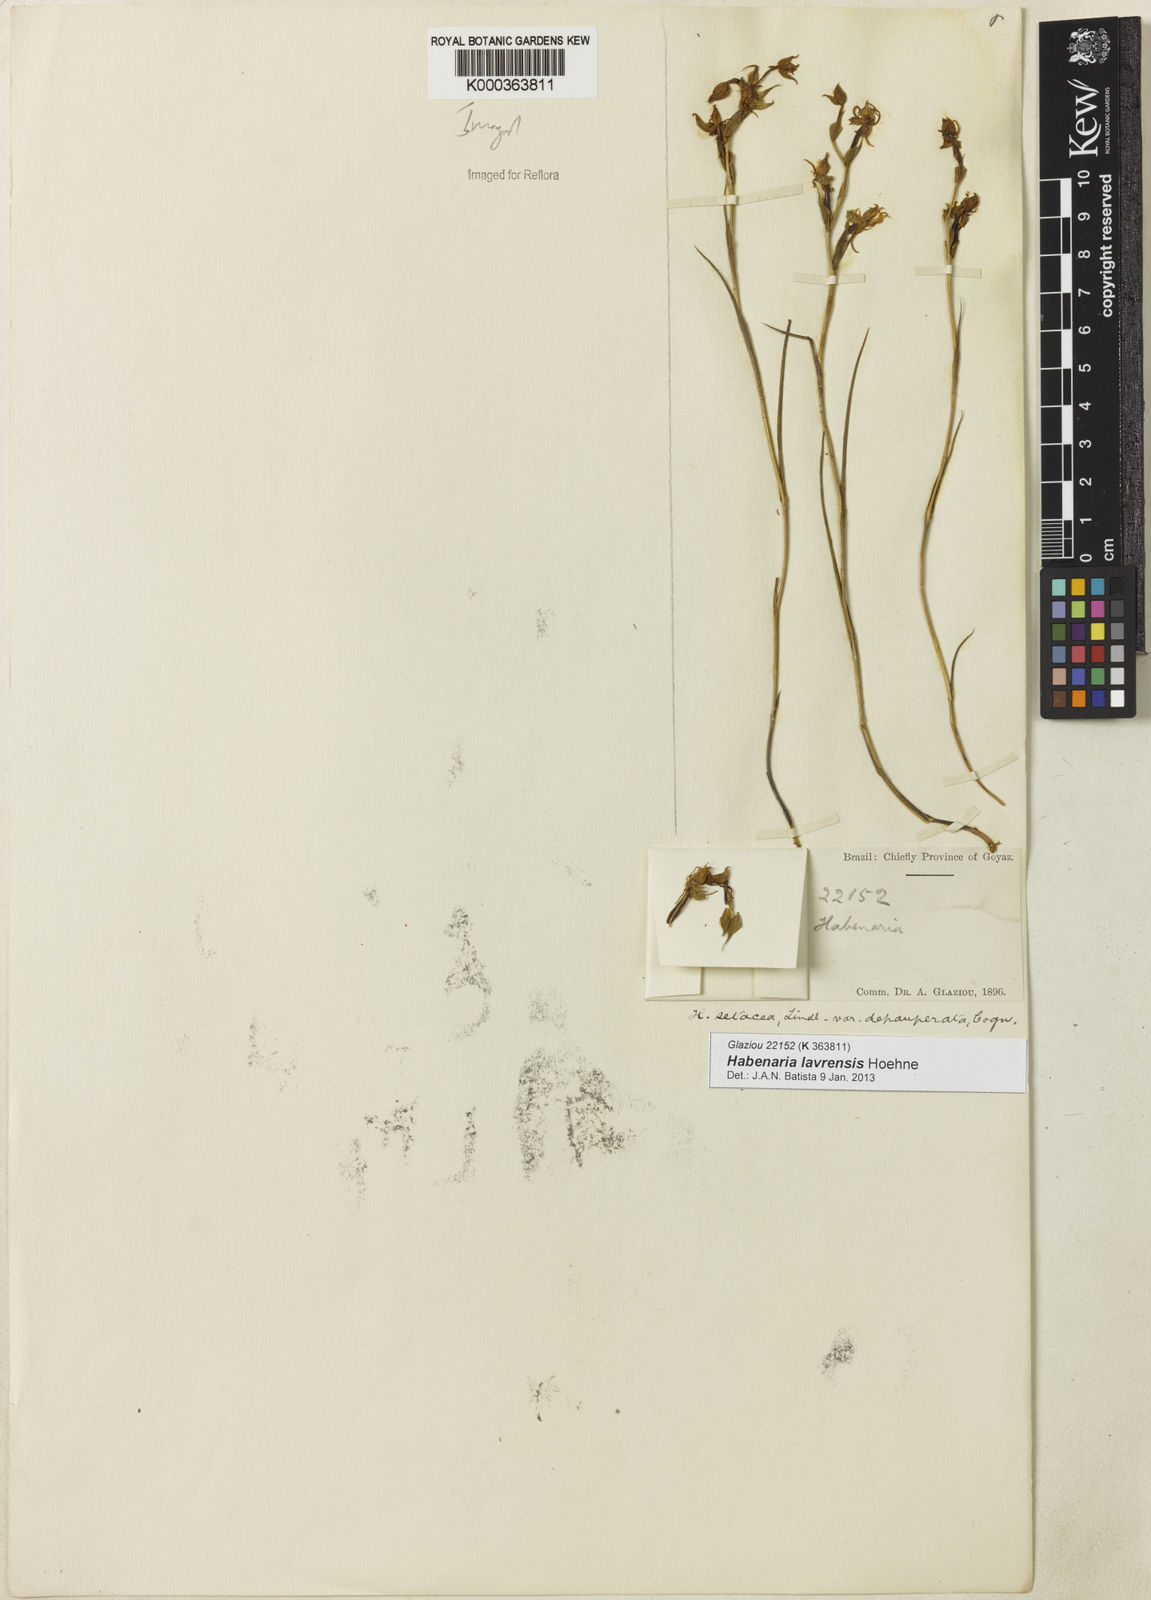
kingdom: Plantae
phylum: Tracheophyta
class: Liliopsida
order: Asparagales
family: Orchidaceae
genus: Habenaria
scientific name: Habenaria setacea
